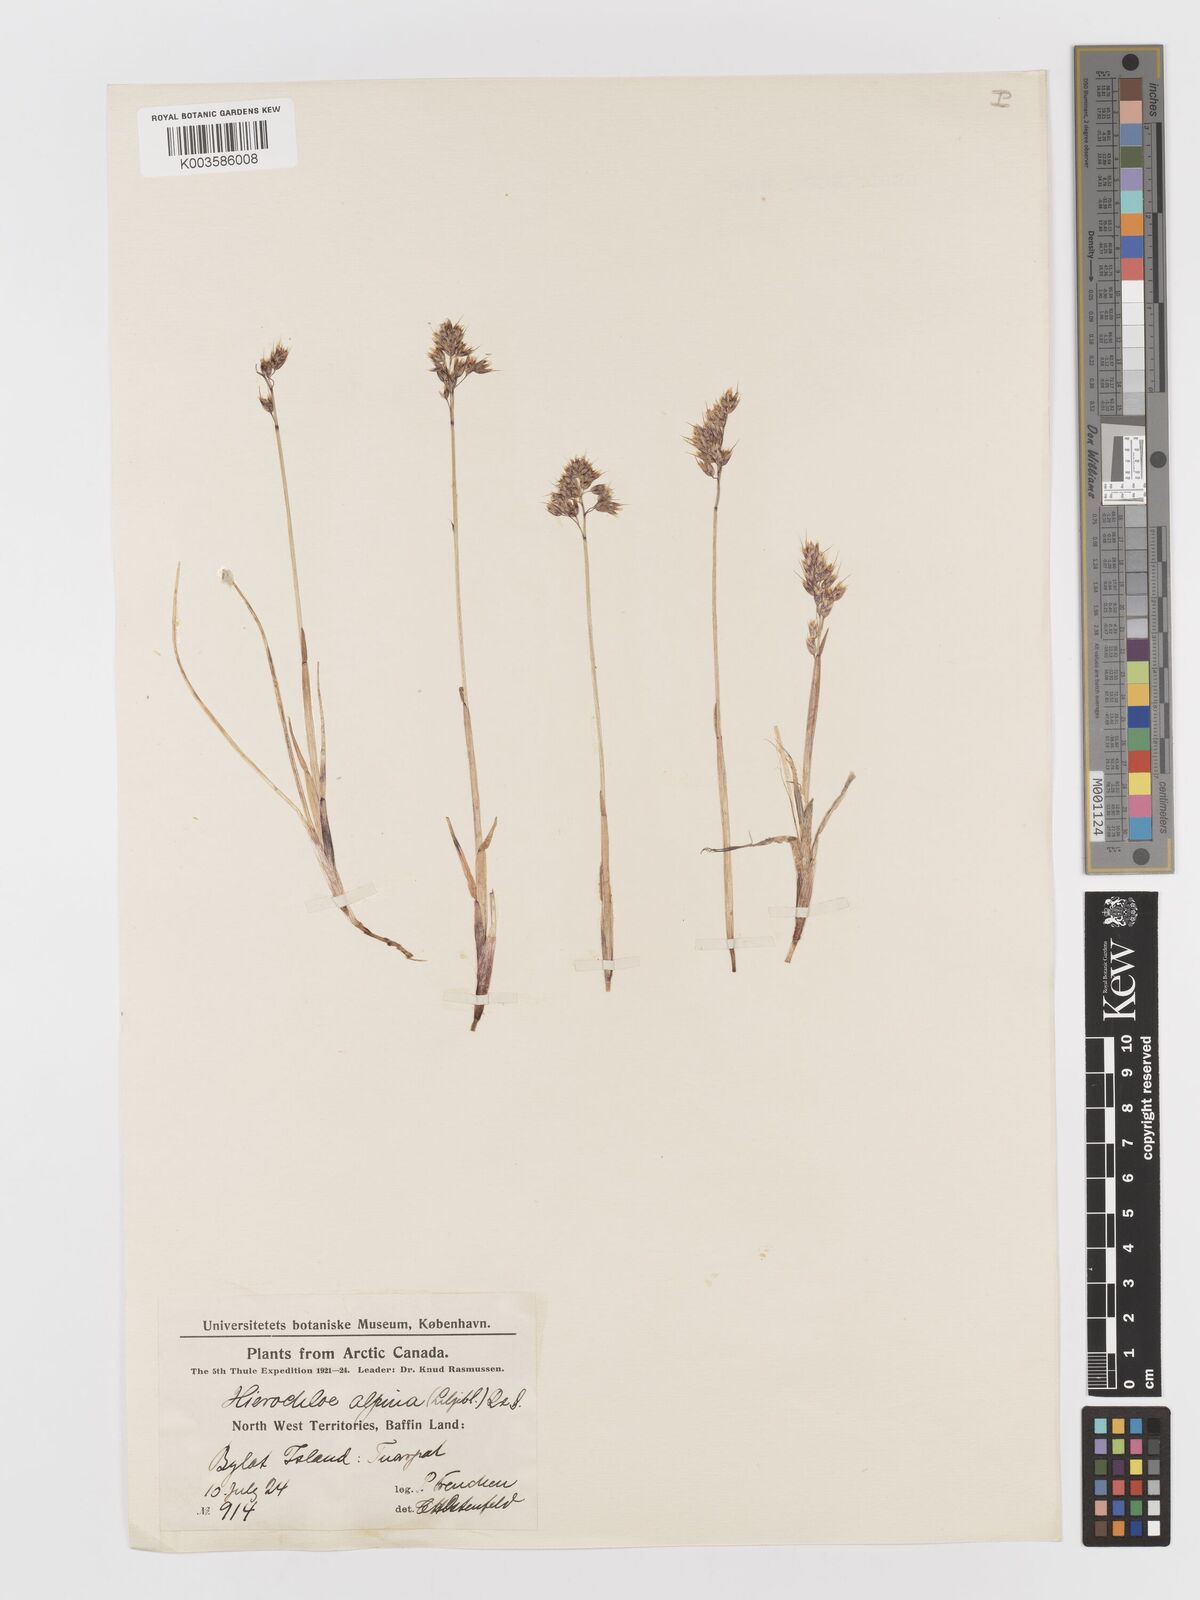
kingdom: Plantae
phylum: Tracheophyta
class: Liliopsida
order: Poales
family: Poaceae
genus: Anthoxanthum
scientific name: Anthoxanthum monticola
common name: Alpine sweetgrass
